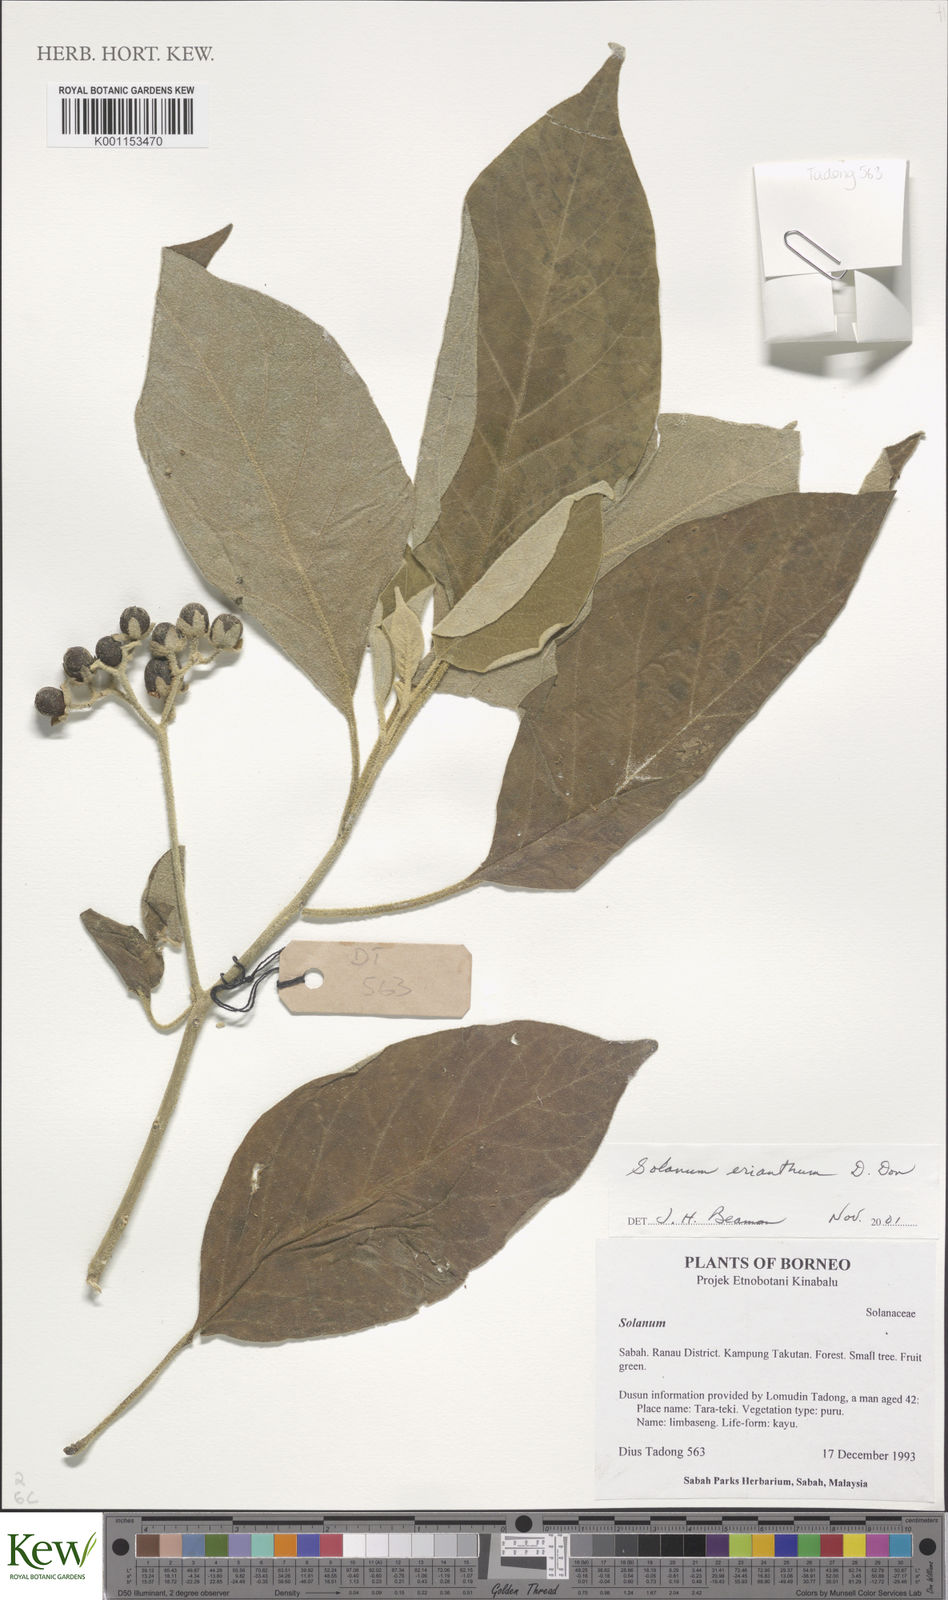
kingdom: Plantae
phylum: Tracheophyta
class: Magnoliopsida
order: Solanales
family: Solanaceae
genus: Solanum
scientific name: Solanum erianthum
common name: Tobacco-tree
